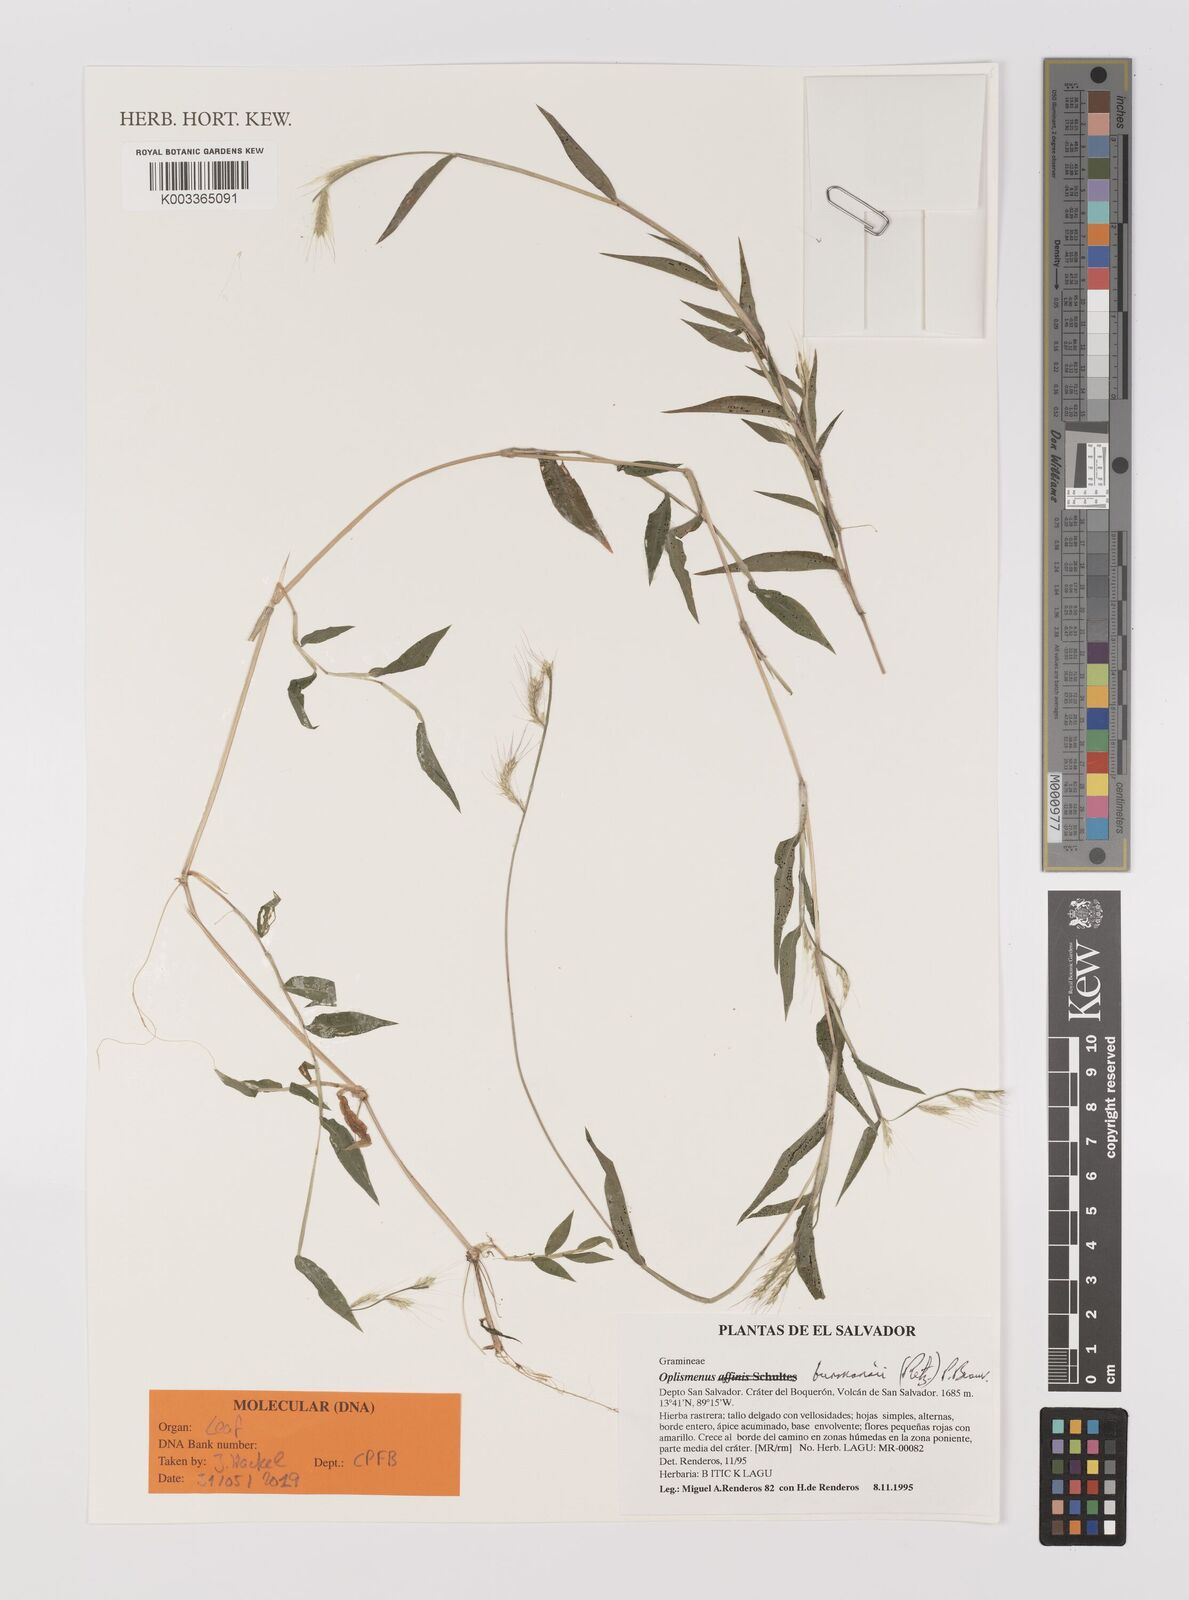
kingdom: Plantae
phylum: Tracheophyta
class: Liliopsida
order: Poales
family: Poaceae
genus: Oplismenus
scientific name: Oplismenus burmanni
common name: Burmann's basketgrass
